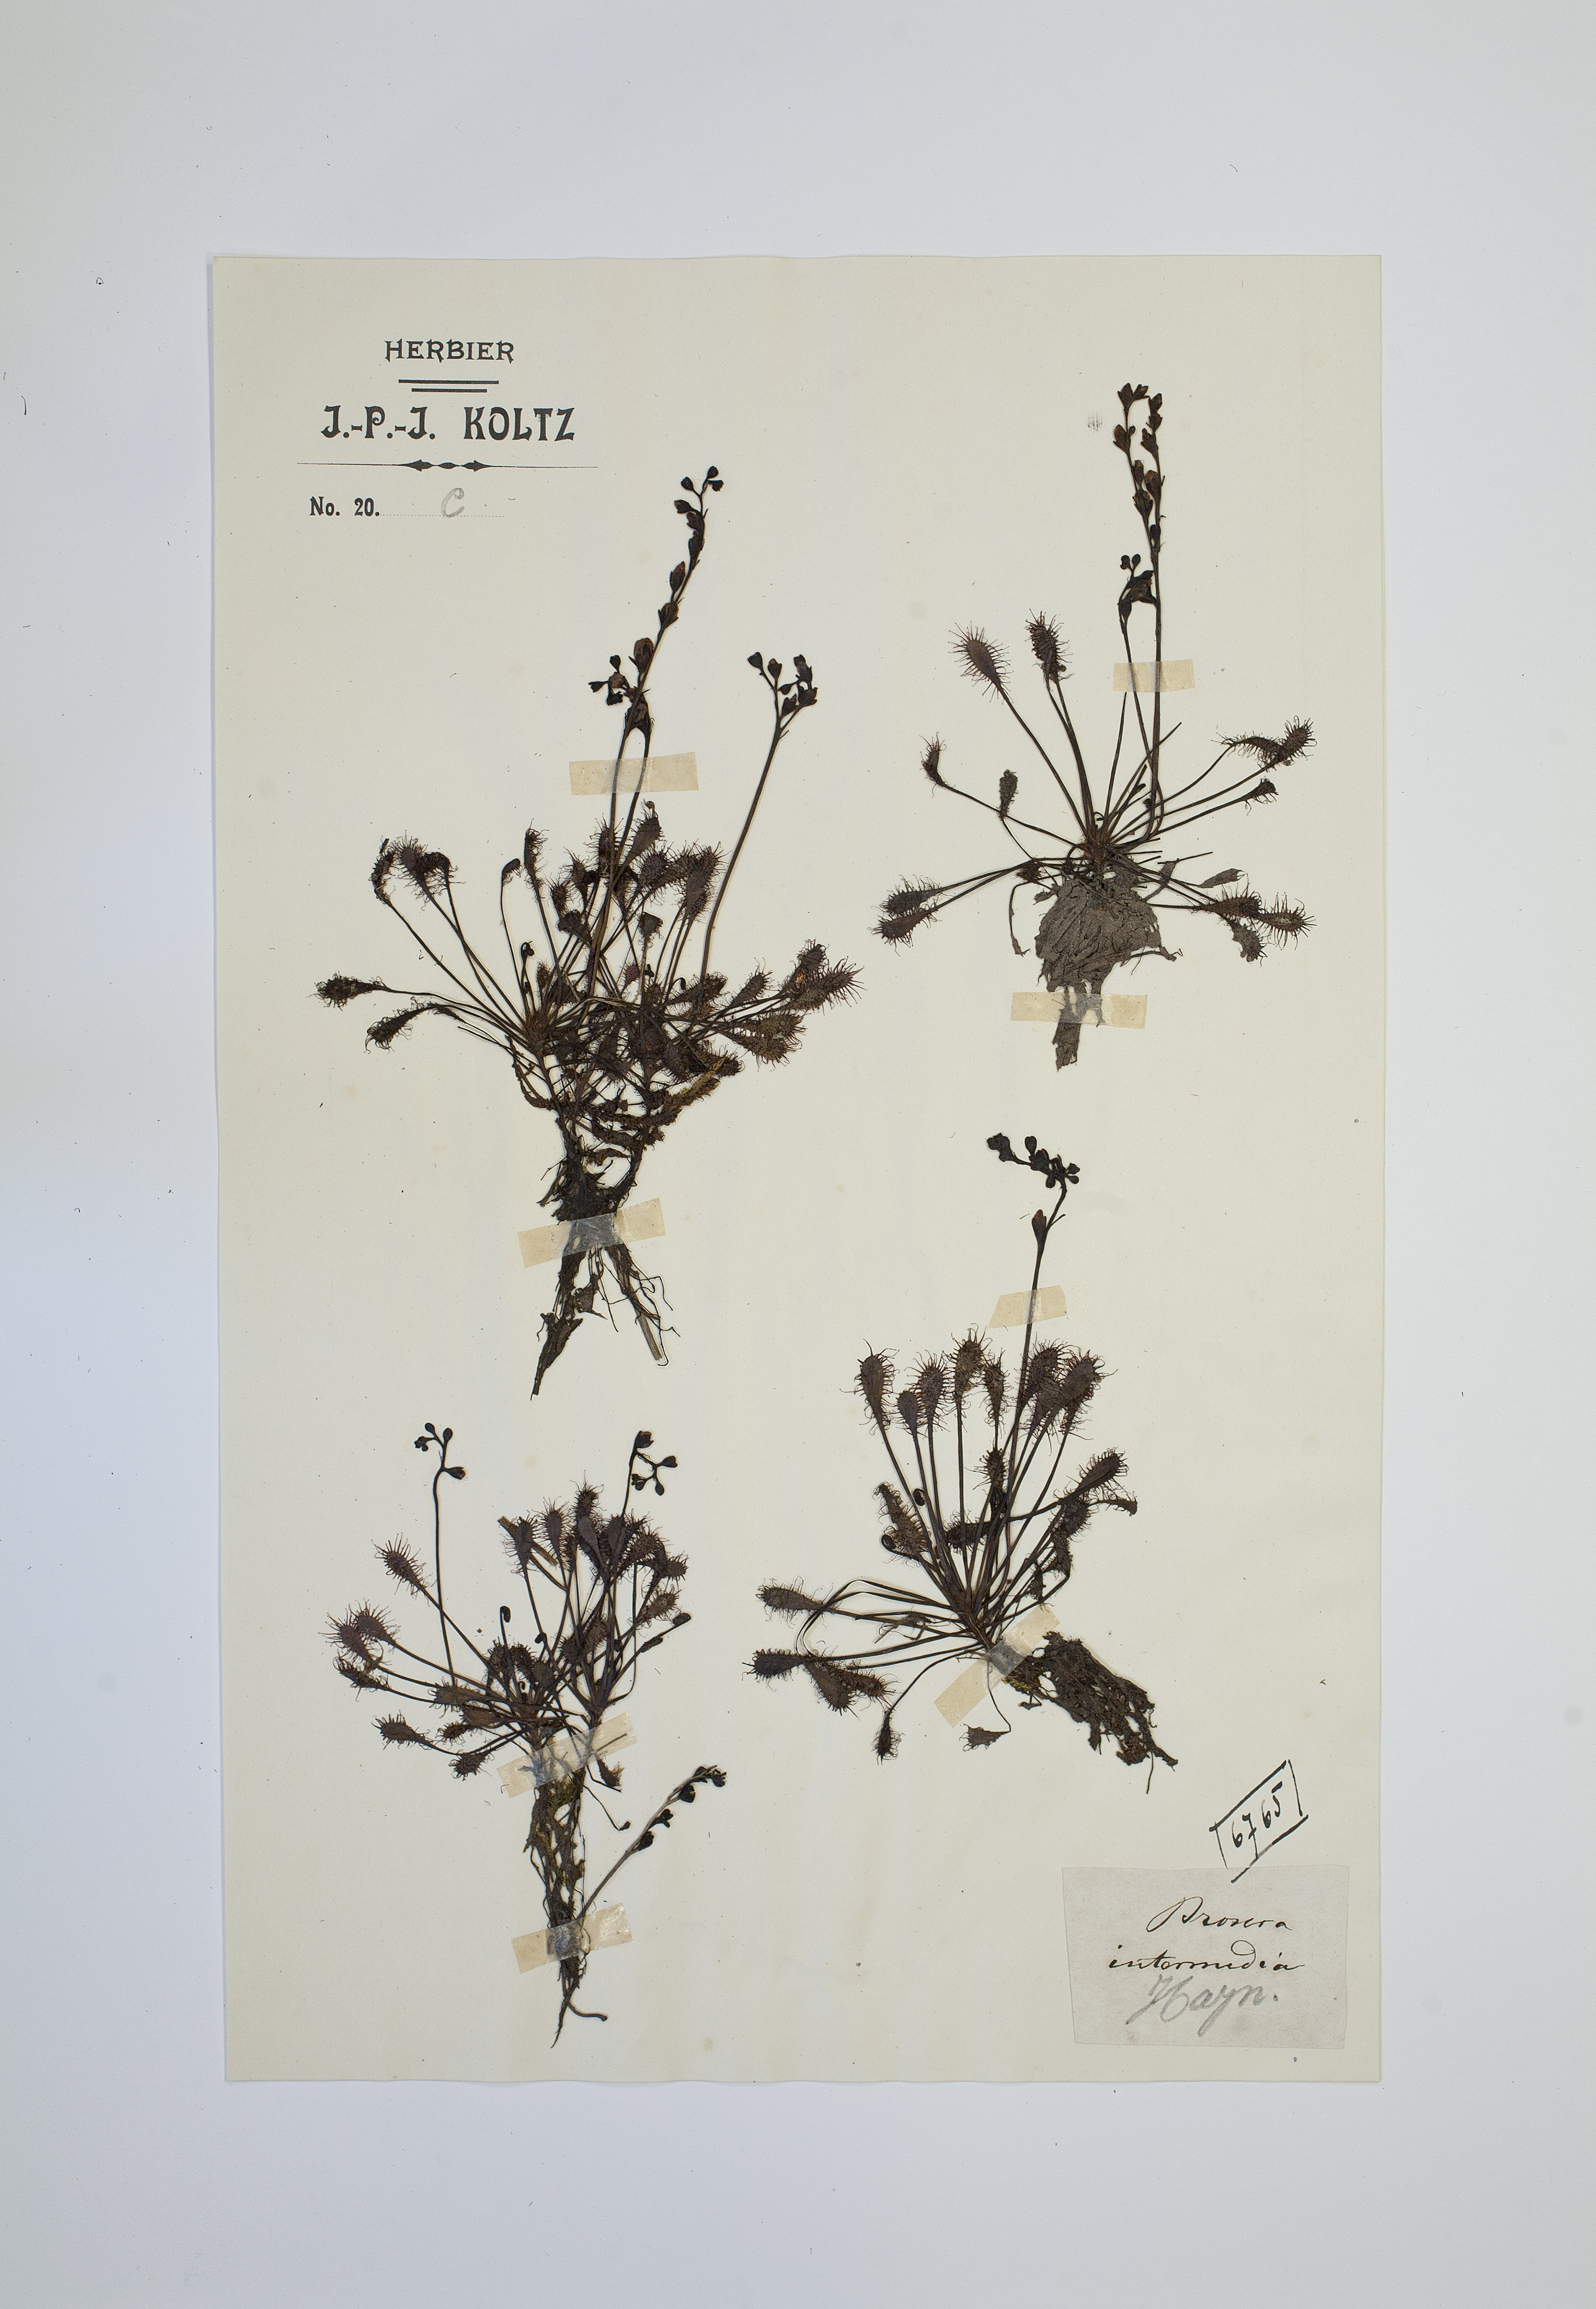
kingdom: Plantae
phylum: Tracheophyta
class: Magnoliopsida
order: Caryophyllales
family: Droseraceae
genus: Drosera
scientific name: Drosera intermedia
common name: Oblong-leaved sundew
